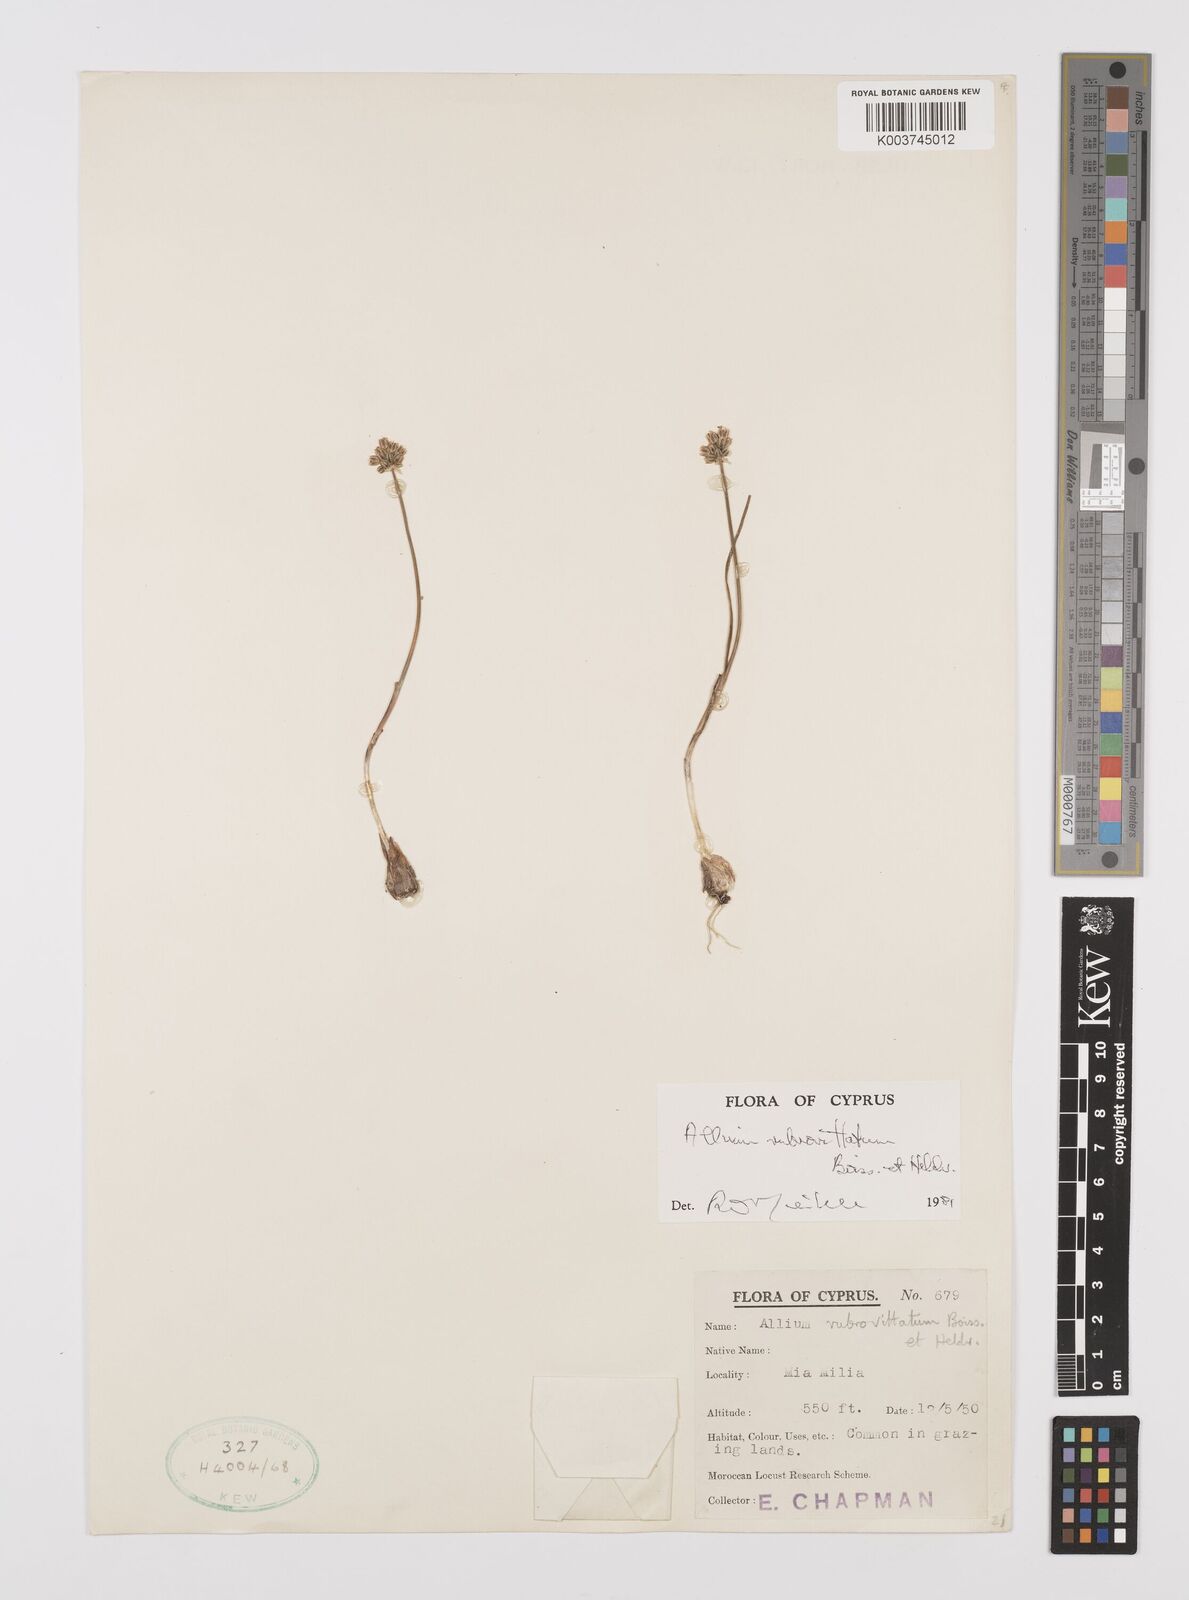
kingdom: Plantae
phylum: Tracheophyta
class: Liliopsida
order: Asparagales
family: Amaryllidaceae
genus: Allium
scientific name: Allium rubrovittatum
